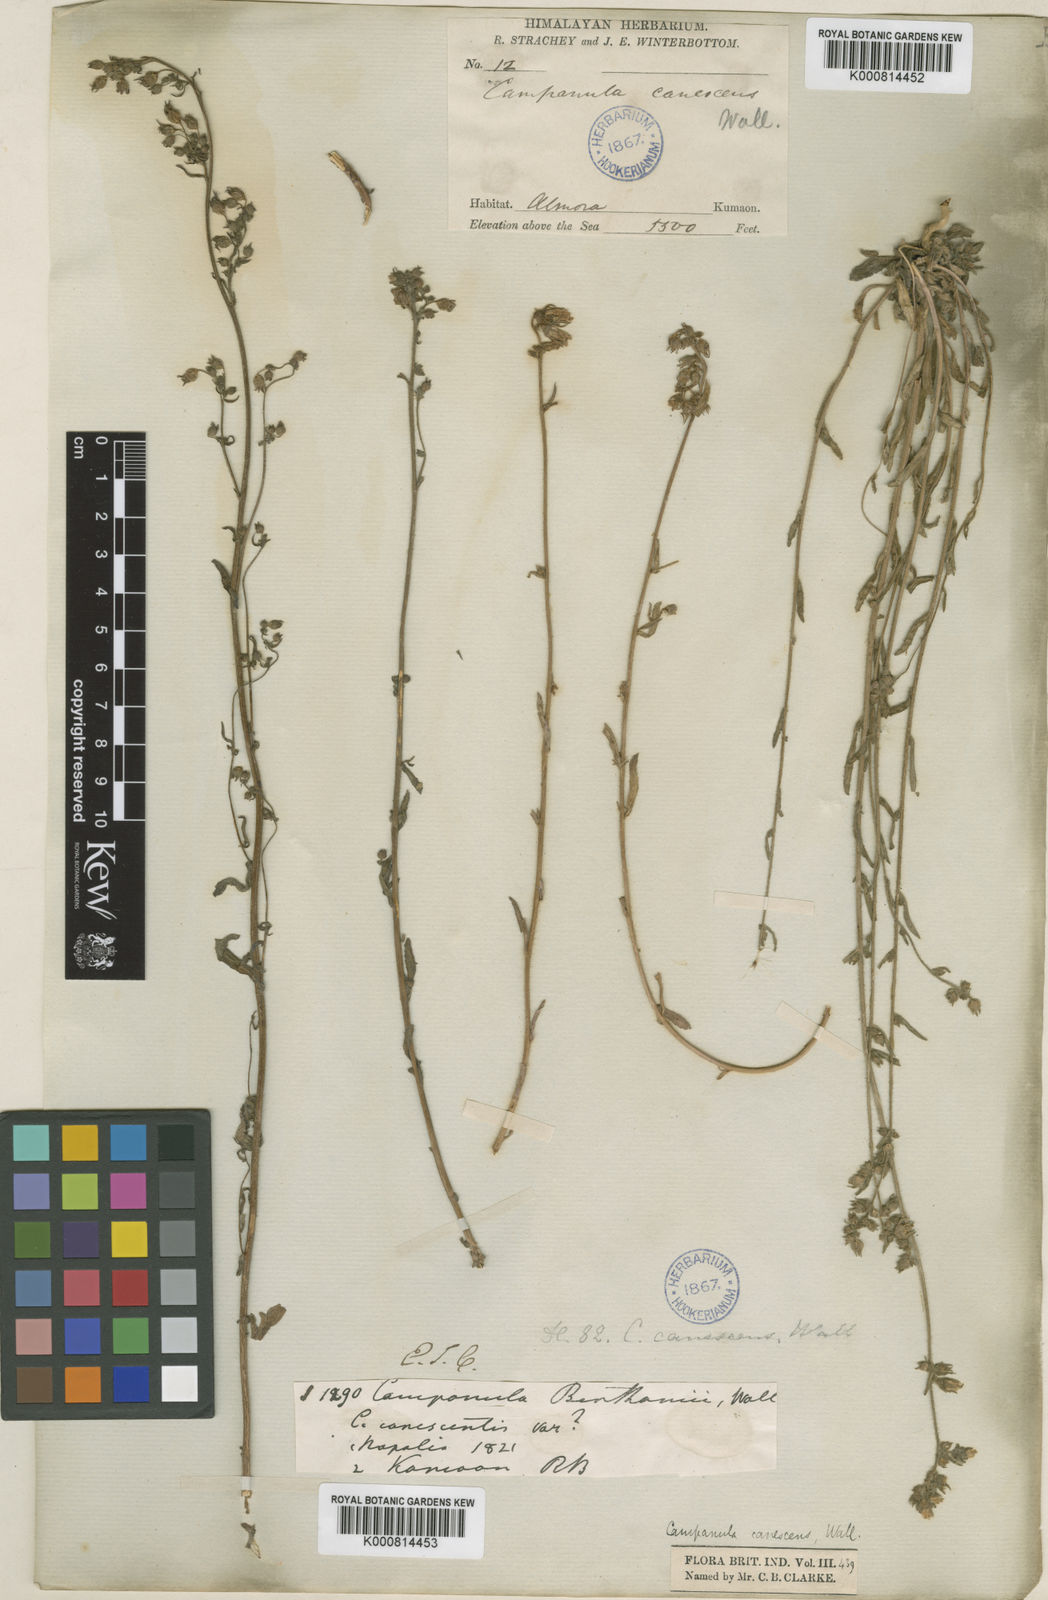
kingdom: Plantae
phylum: Tracheophyta
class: Magnoliopsida
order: Asterales
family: Campanulaceae
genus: Campanula
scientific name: Campanula
